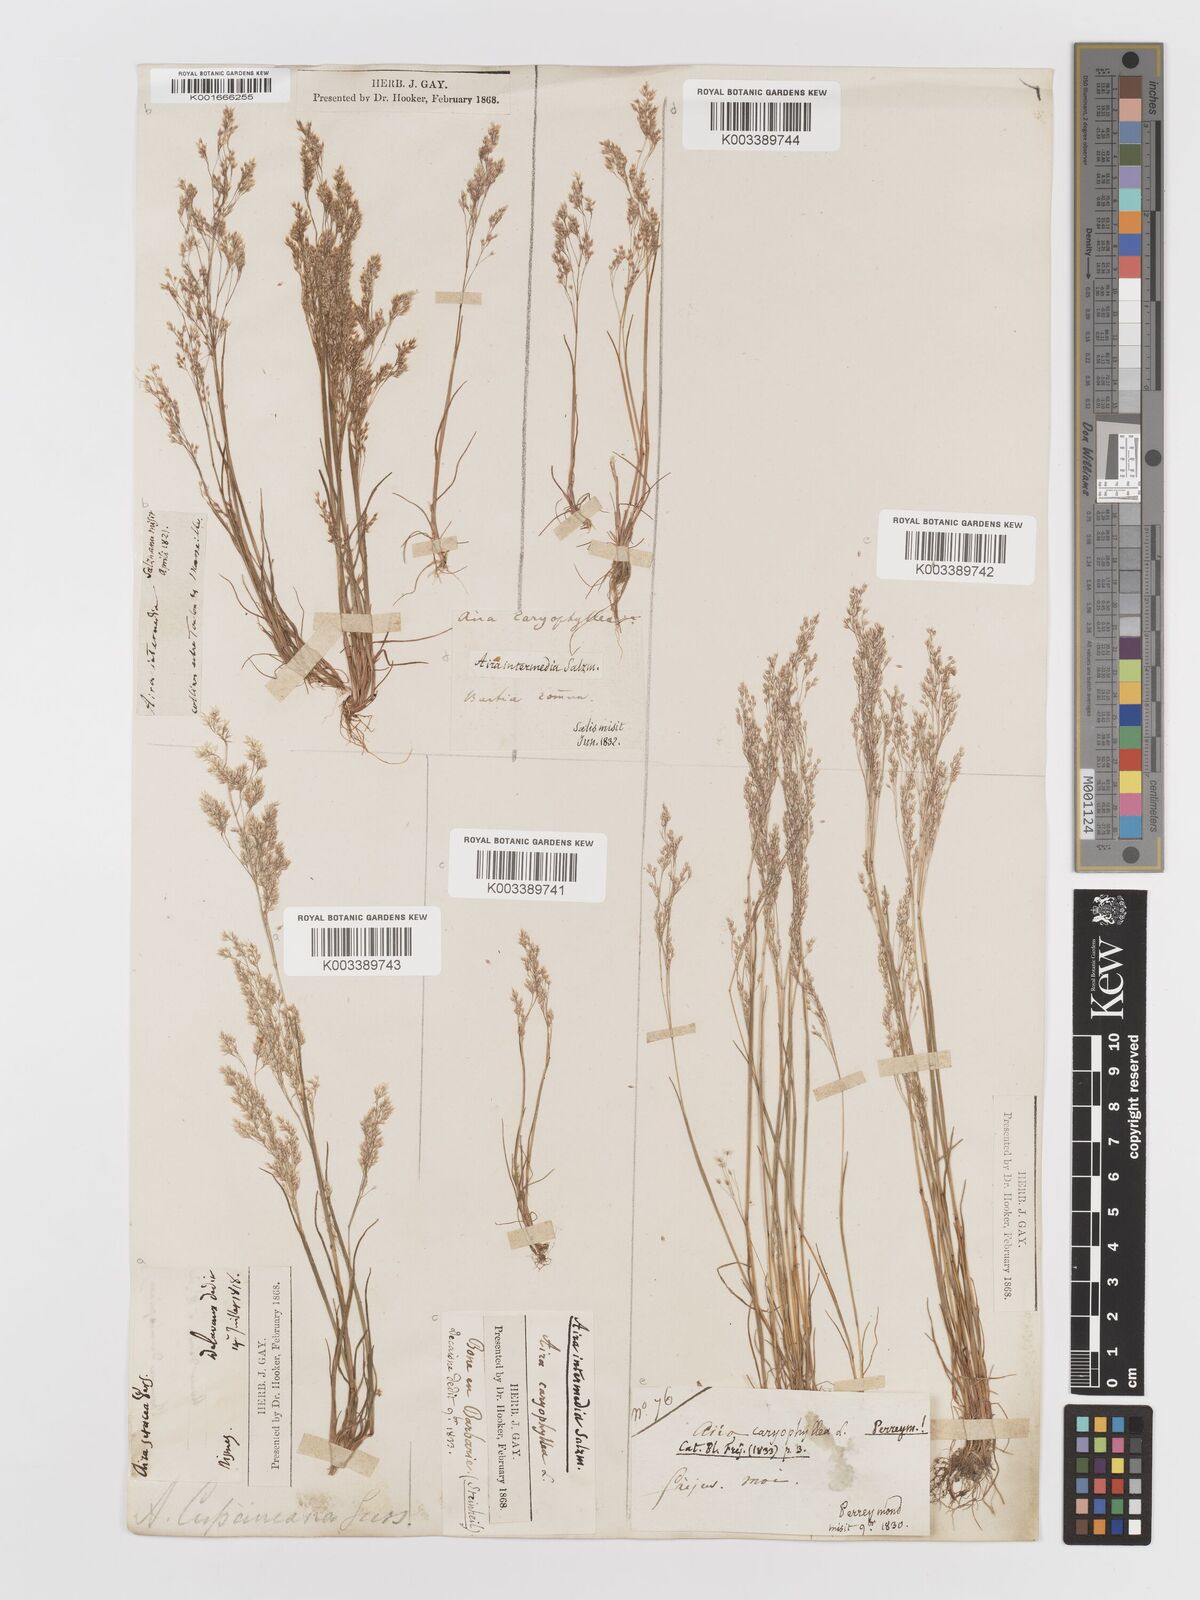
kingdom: Plantae
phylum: Tracheophyta
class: Liliopsida
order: Poales
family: Poaceae
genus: Aira
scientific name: Aira cupaniana
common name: Silver hairgrass
